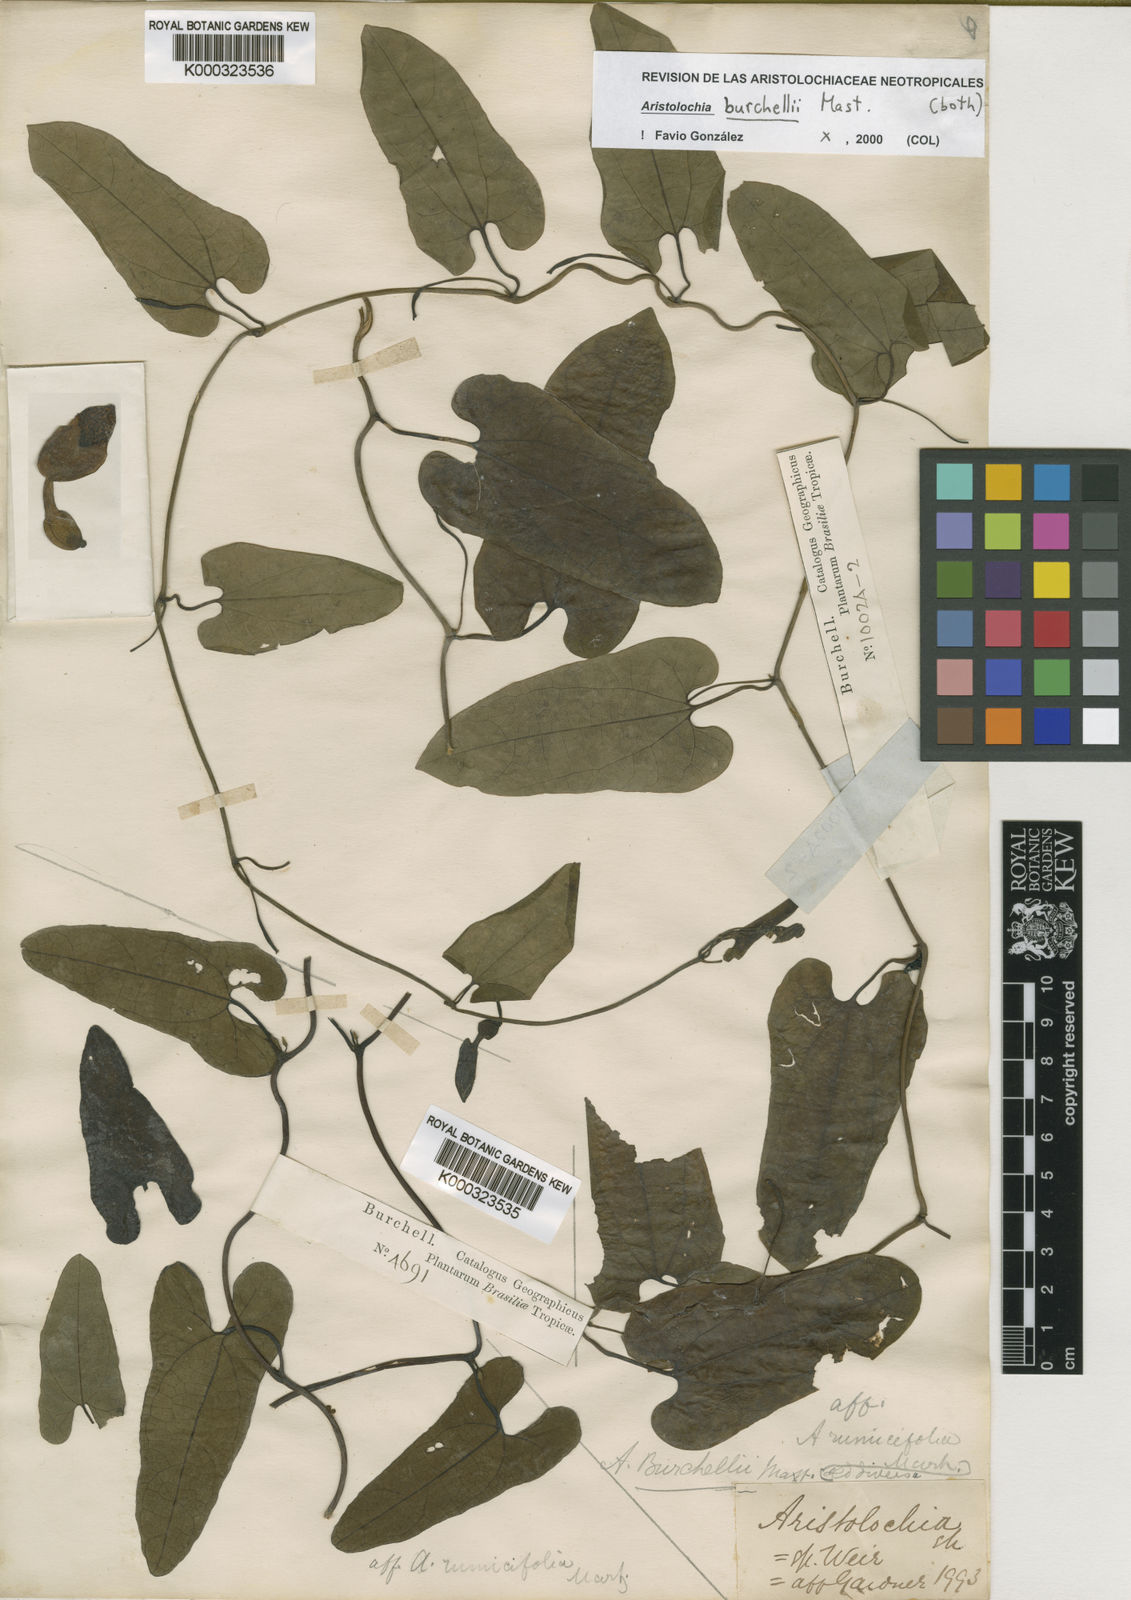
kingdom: Plantae
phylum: Tracheophyta
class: Magnoliopsida
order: Piperales
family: Aristolochiaceae
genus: Aristolochia
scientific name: Aristolochia burchellii
